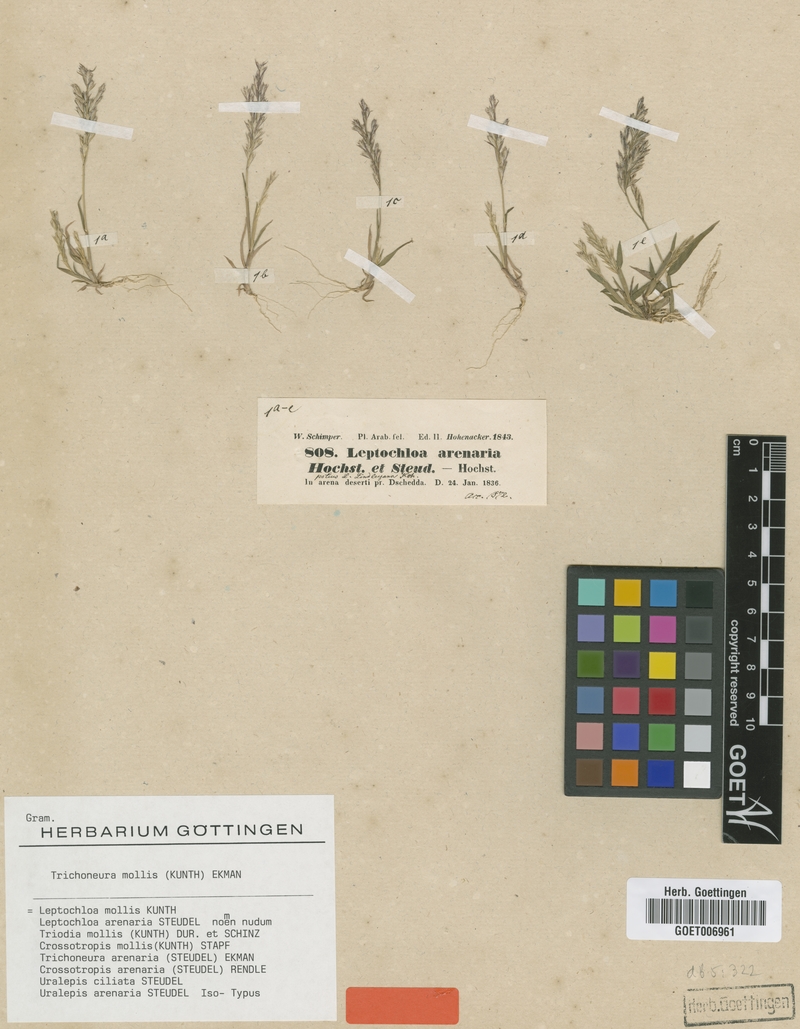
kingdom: Plantae
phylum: Tracheophyta
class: Liliopsida
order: Poales
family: Poaceae
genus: Trichoneura
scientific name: Trichoneura mollis
